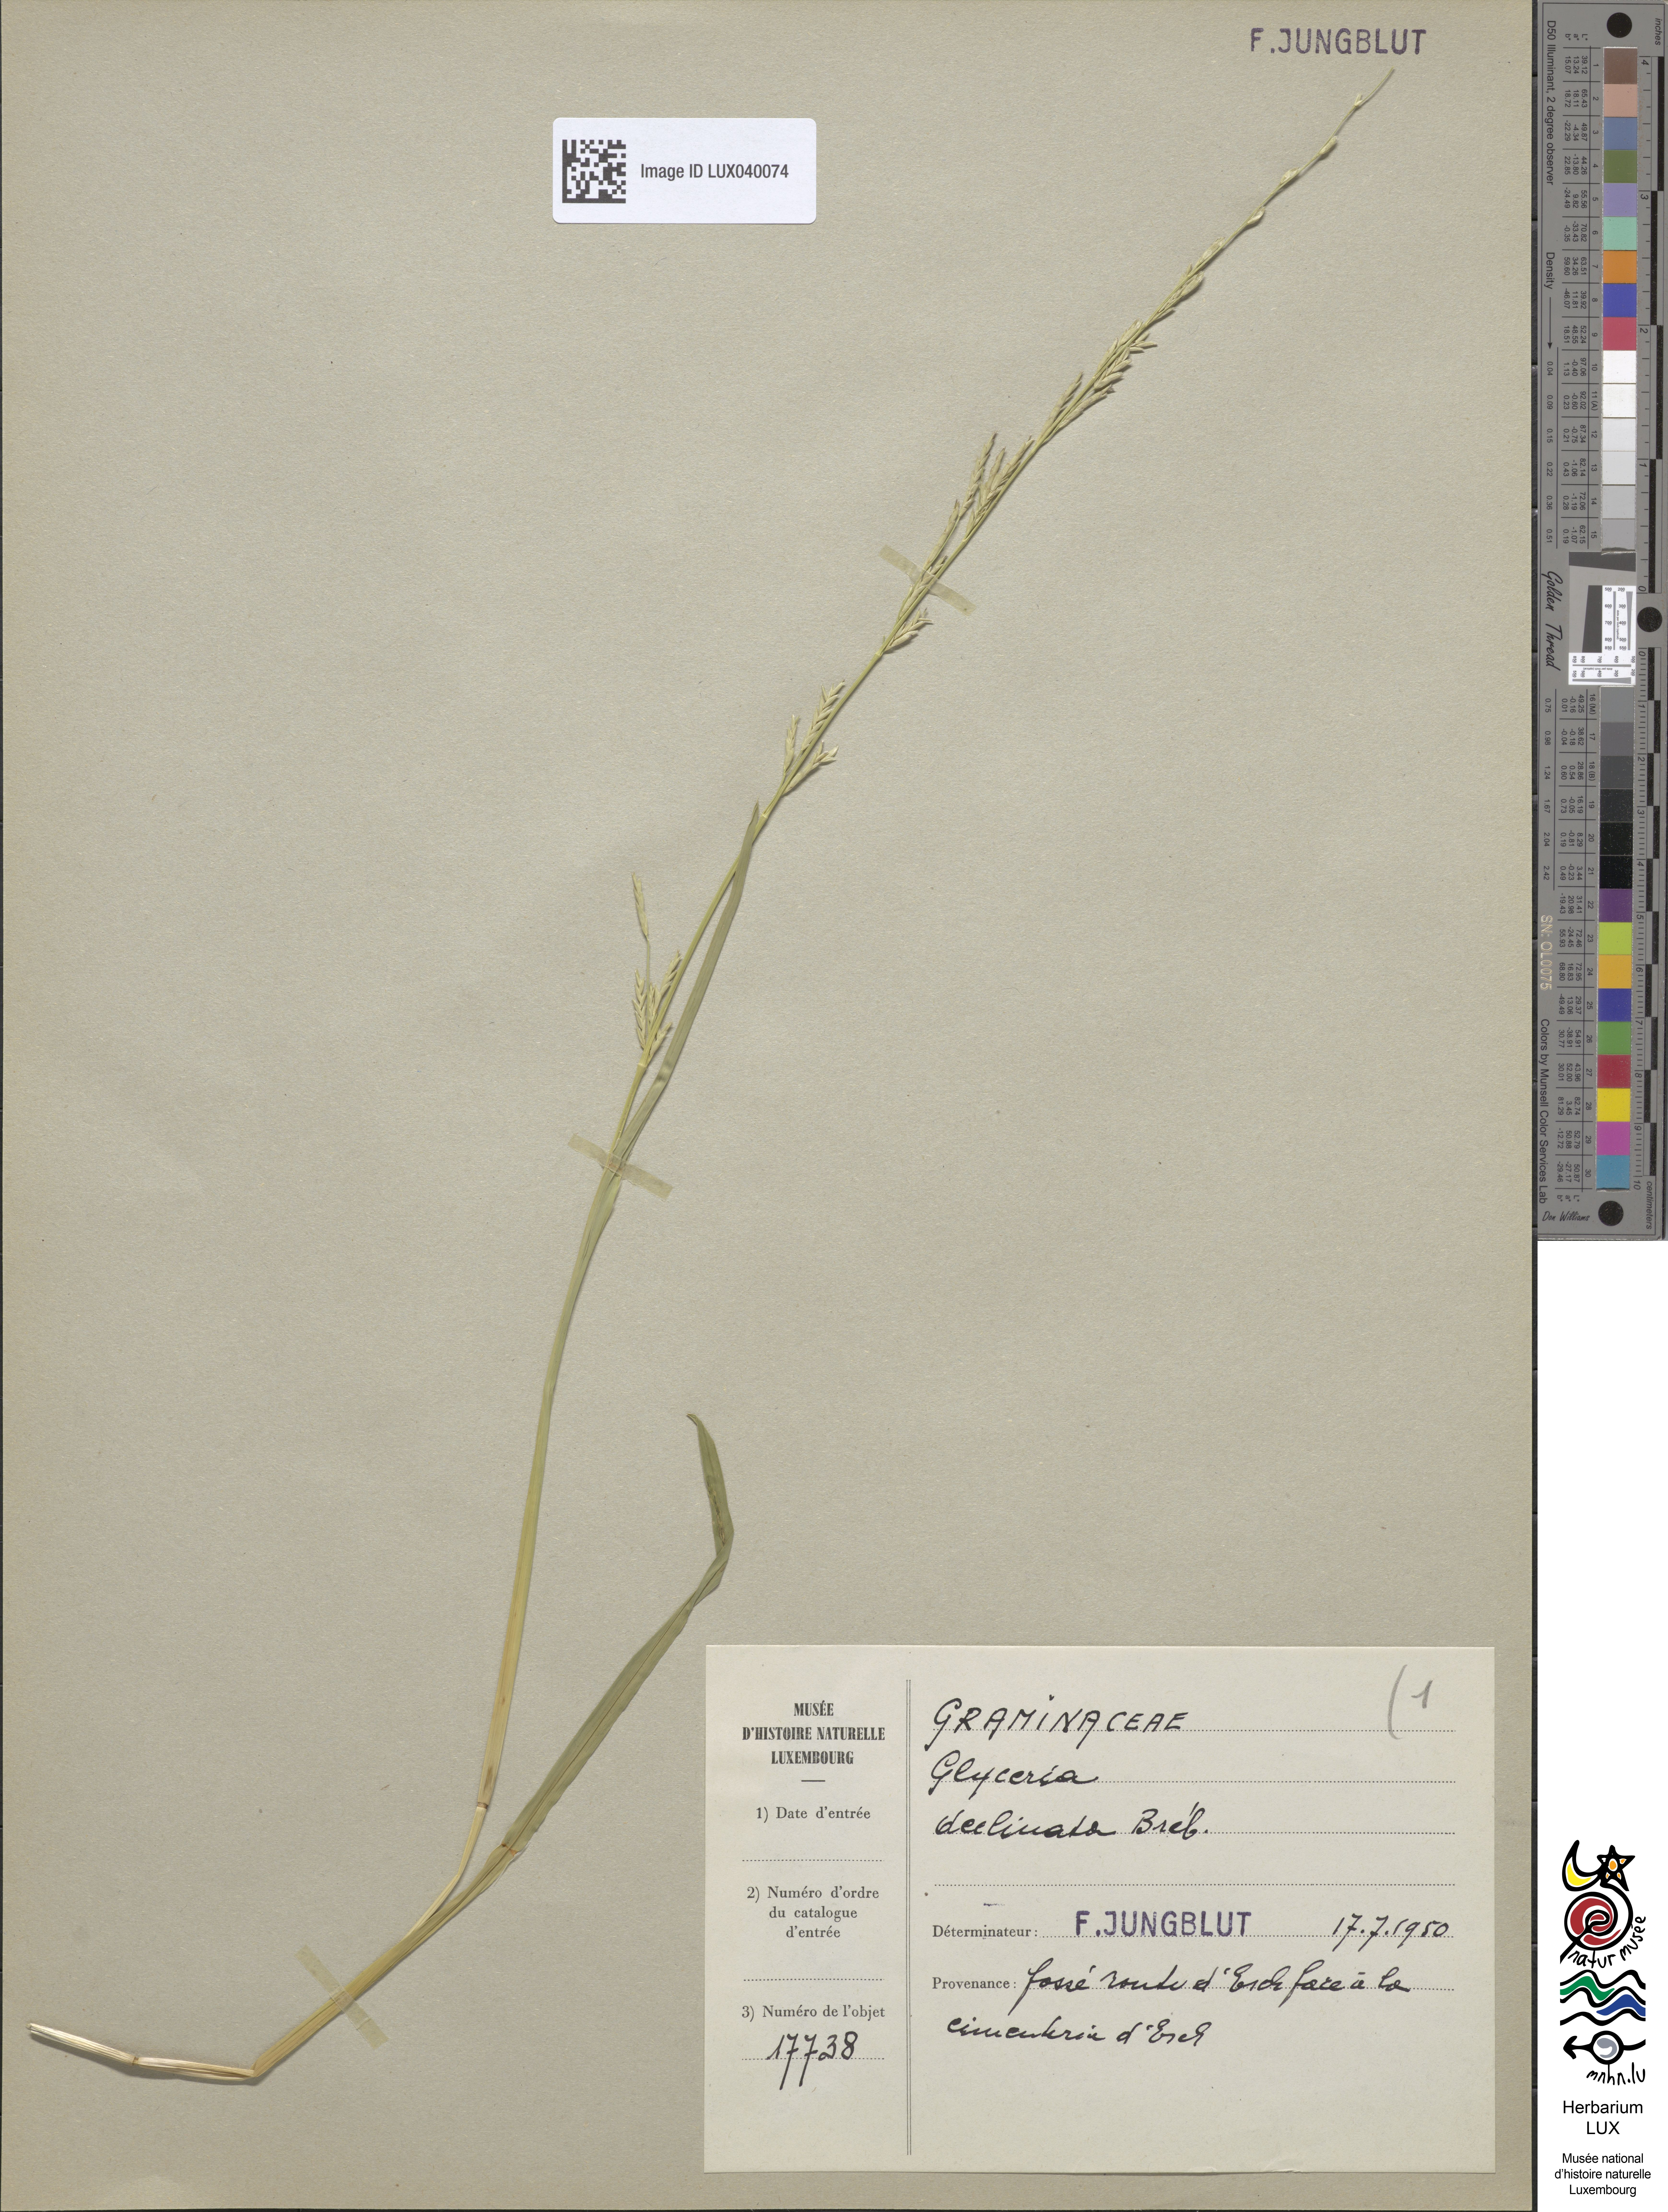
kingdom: Plantae
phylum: Tracheophyta
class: Liliopsida
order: Poales
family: Poaceae
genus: Glyceria
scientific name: Glyceria declinata
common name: Small sweet-grass
